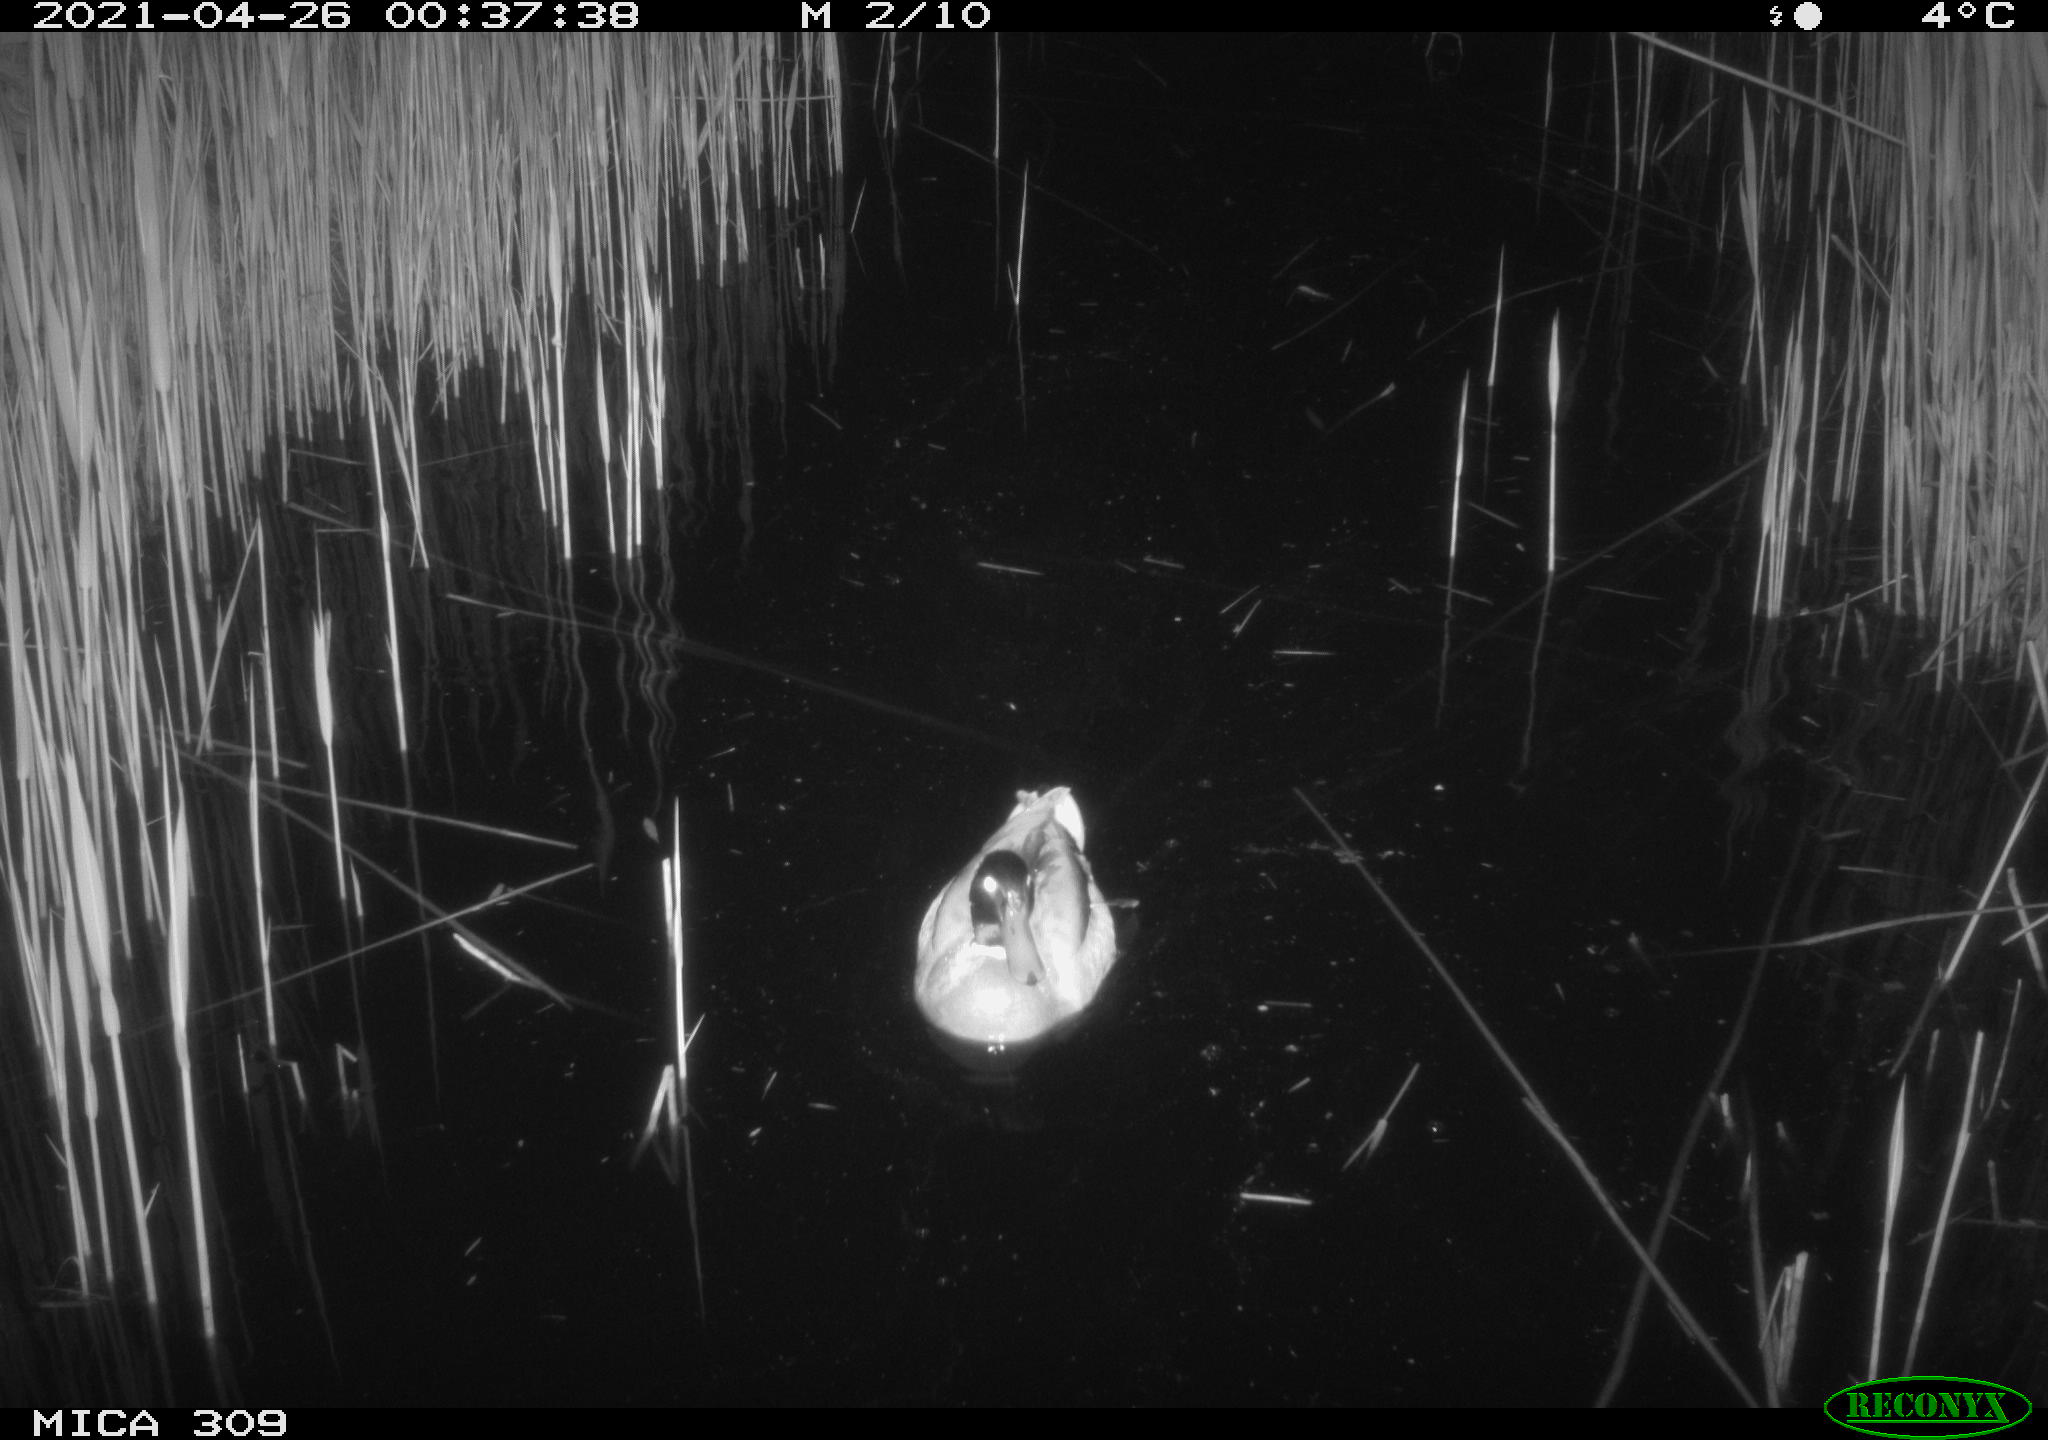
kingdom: Animalia
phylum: Chordata
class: Aves
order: Anseriformes
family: Anatidae
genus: Anas
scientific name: Anas platyrhynchos
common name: Mallard
